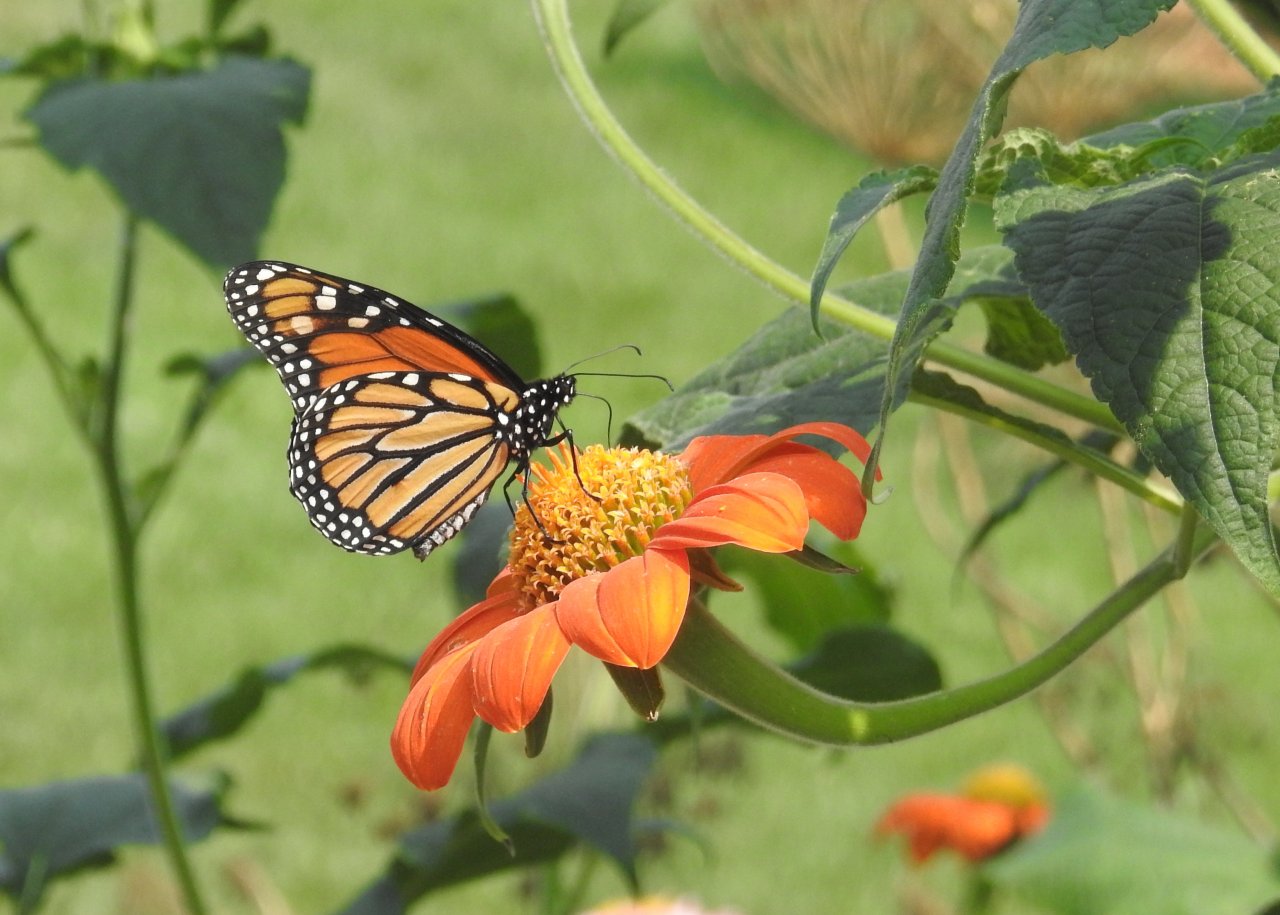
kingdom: Animalia
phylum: Arthropoda
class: Insecta
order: Lepidoptera
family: Nymphalidae
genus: Danaus
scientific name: Danaus plexippus
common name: Monarch
